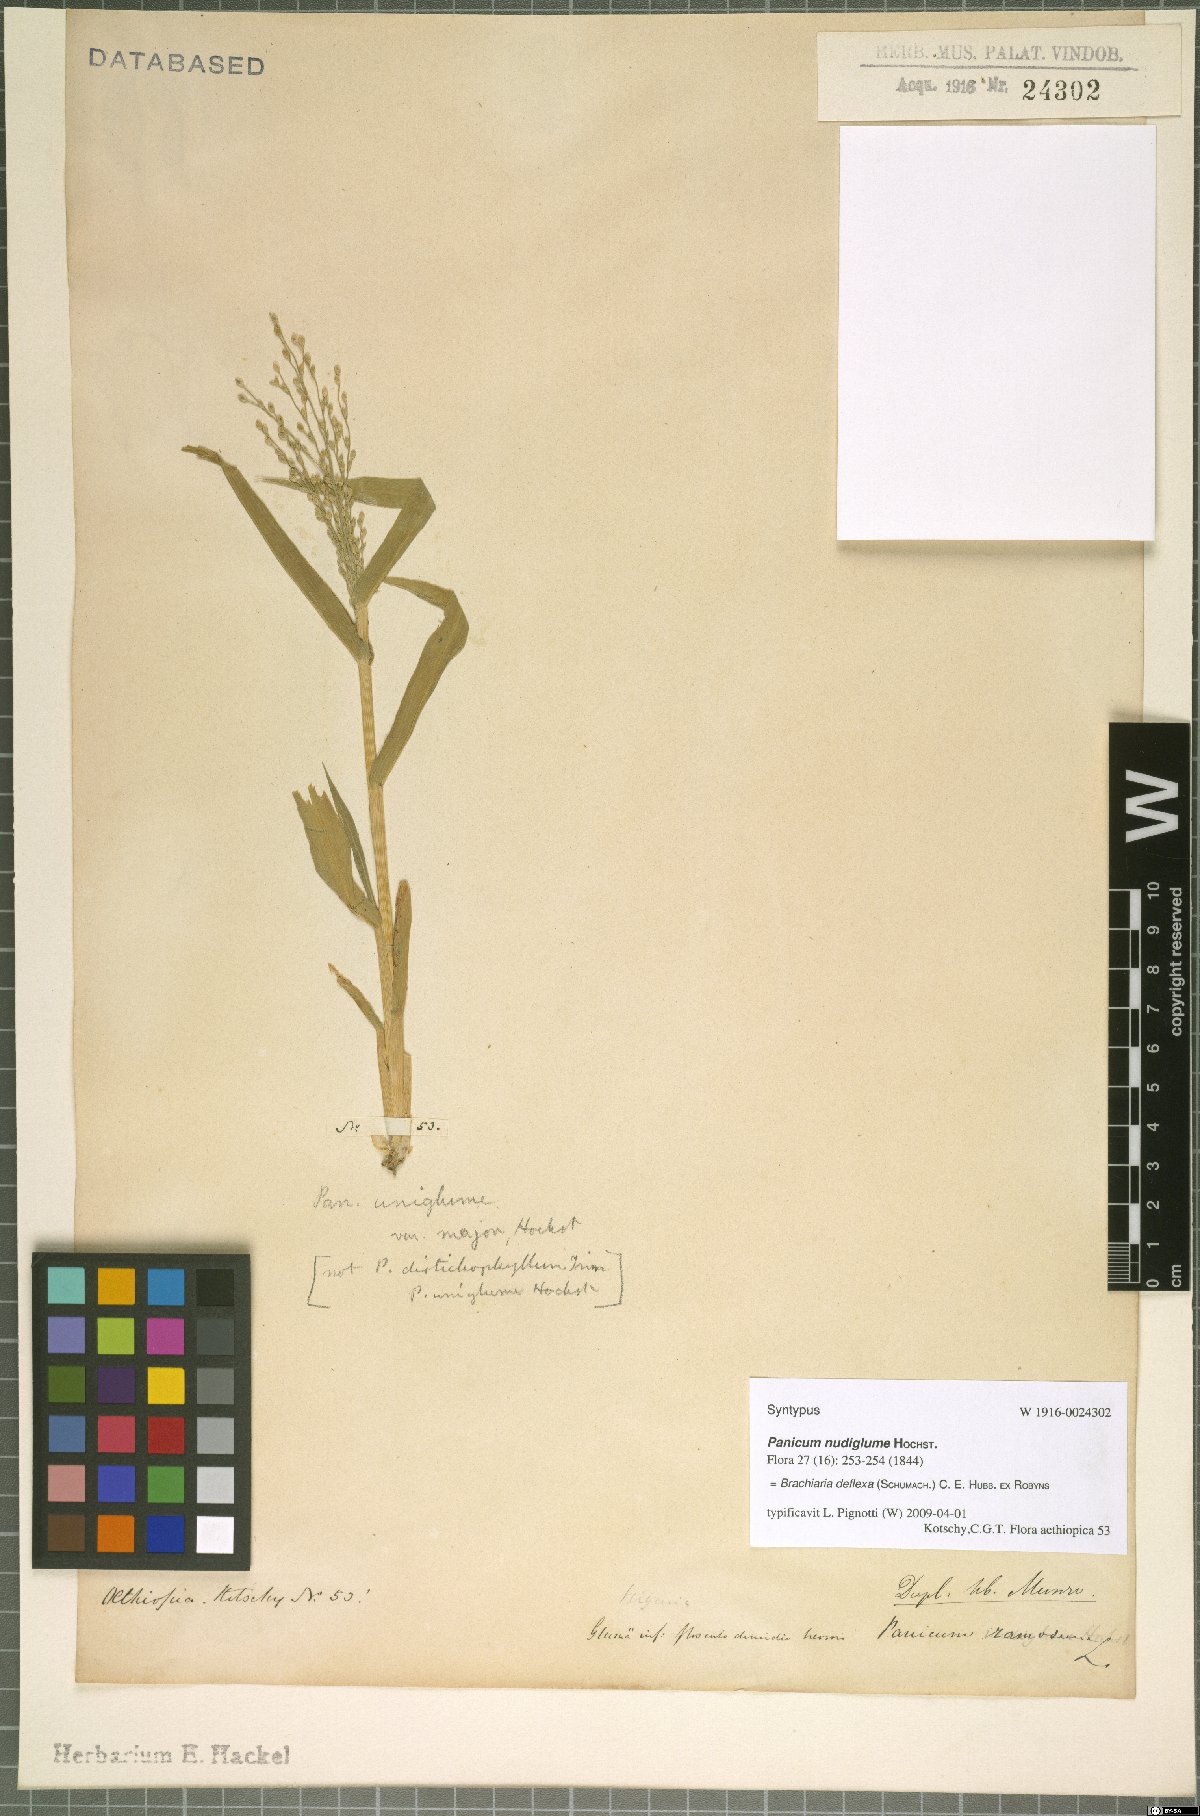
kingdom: Plantae
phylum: Tracheophyta
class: Liliopsida
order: Poales
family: Poaceae
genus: Urochloa
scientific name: Urochloa deflexa
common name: Guinea millet
